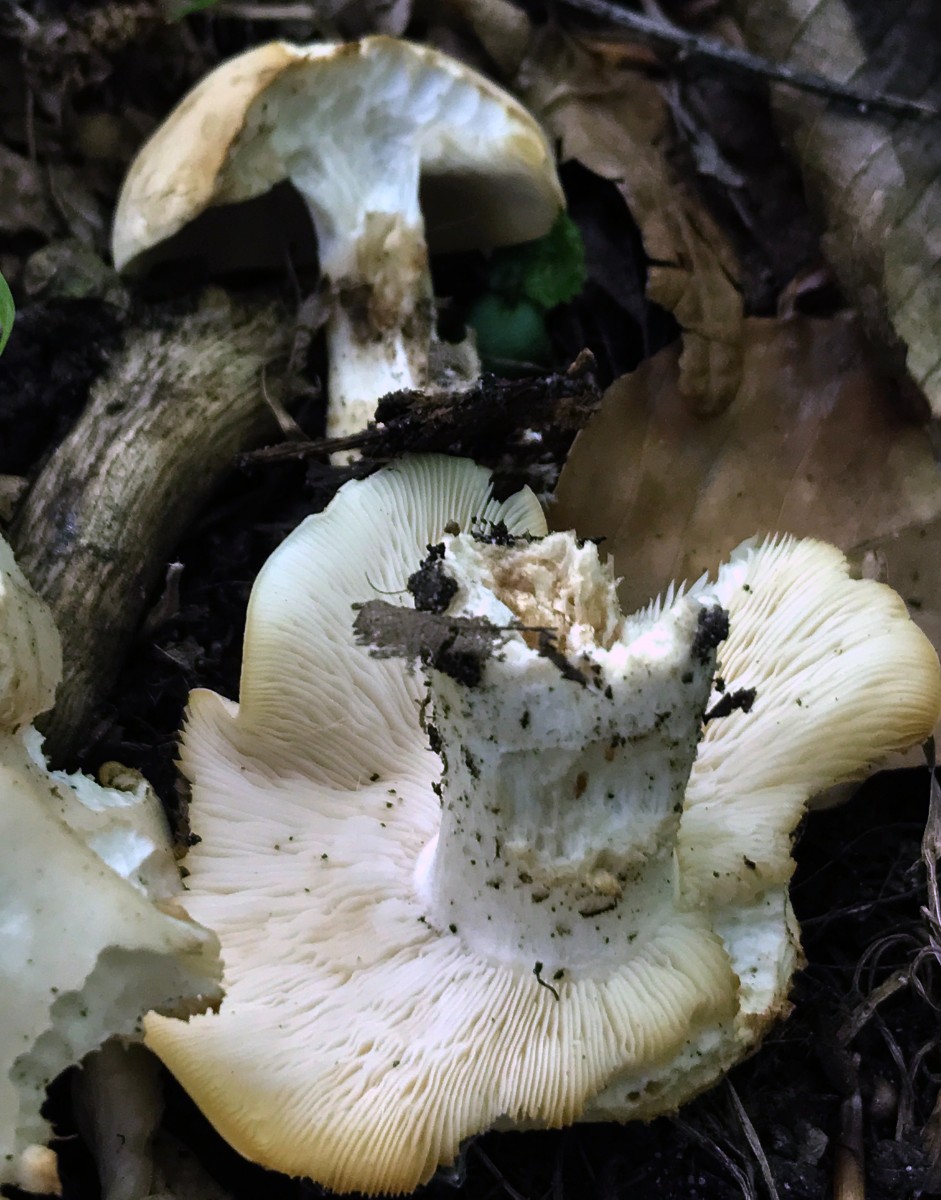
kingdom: Fungi
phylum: Basidiomycota
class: Agaricomycetes
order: Agaricales
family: Lyophyllaceae
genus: Calocybe
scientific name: Calocybe gambosa
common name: vårmusseron
